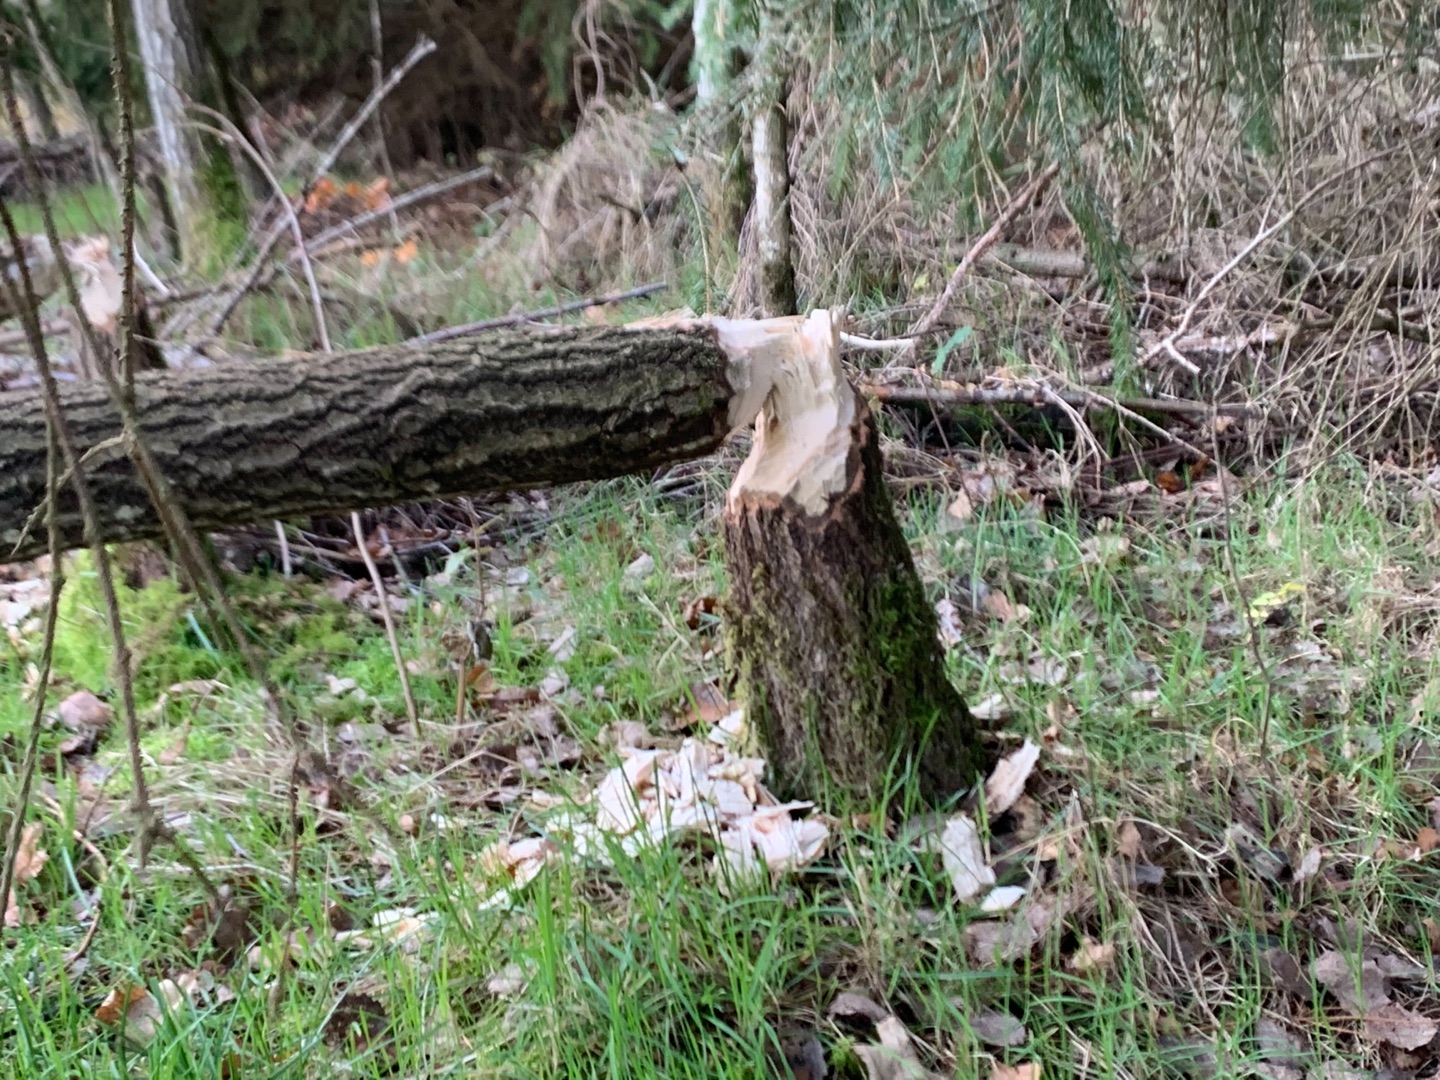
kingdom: Animalia
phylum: Chordata
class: Mammalia
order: Rodentia
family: Castoridae
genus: Castor
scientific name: Castor fiber
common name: Bæver
